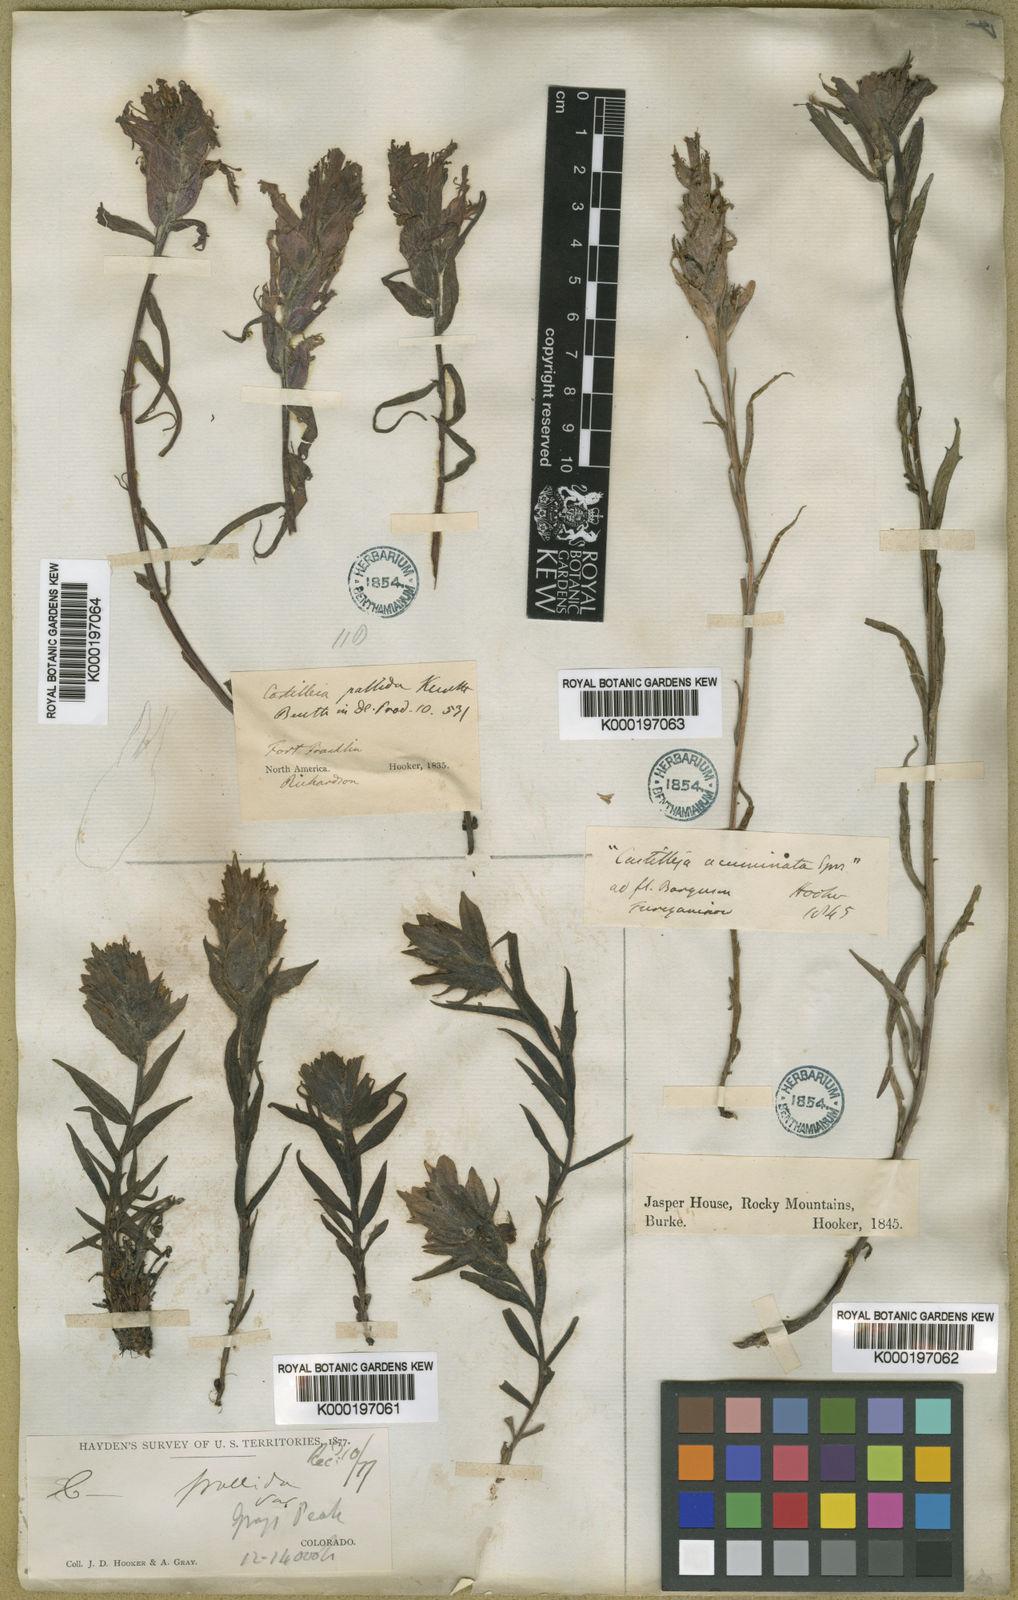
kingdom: Plantae
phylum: Tracheophyta
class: Magnoliopsida
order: Lamiales
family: Orobanchaceae
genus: Castilleja
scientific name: Castilleja pallida
